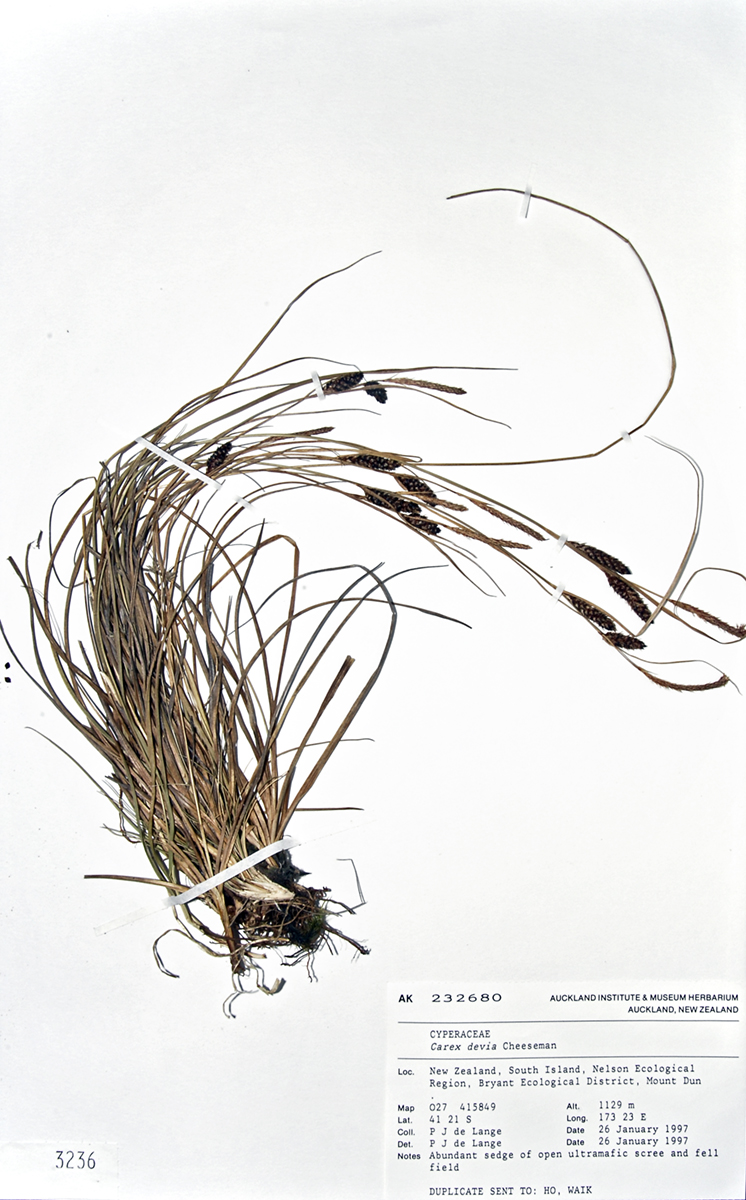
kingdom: Plantae
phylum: Tracheophyta
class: Liliopsida
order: Poales
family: Cyperaceae
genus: Carex
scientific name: Carex devia
